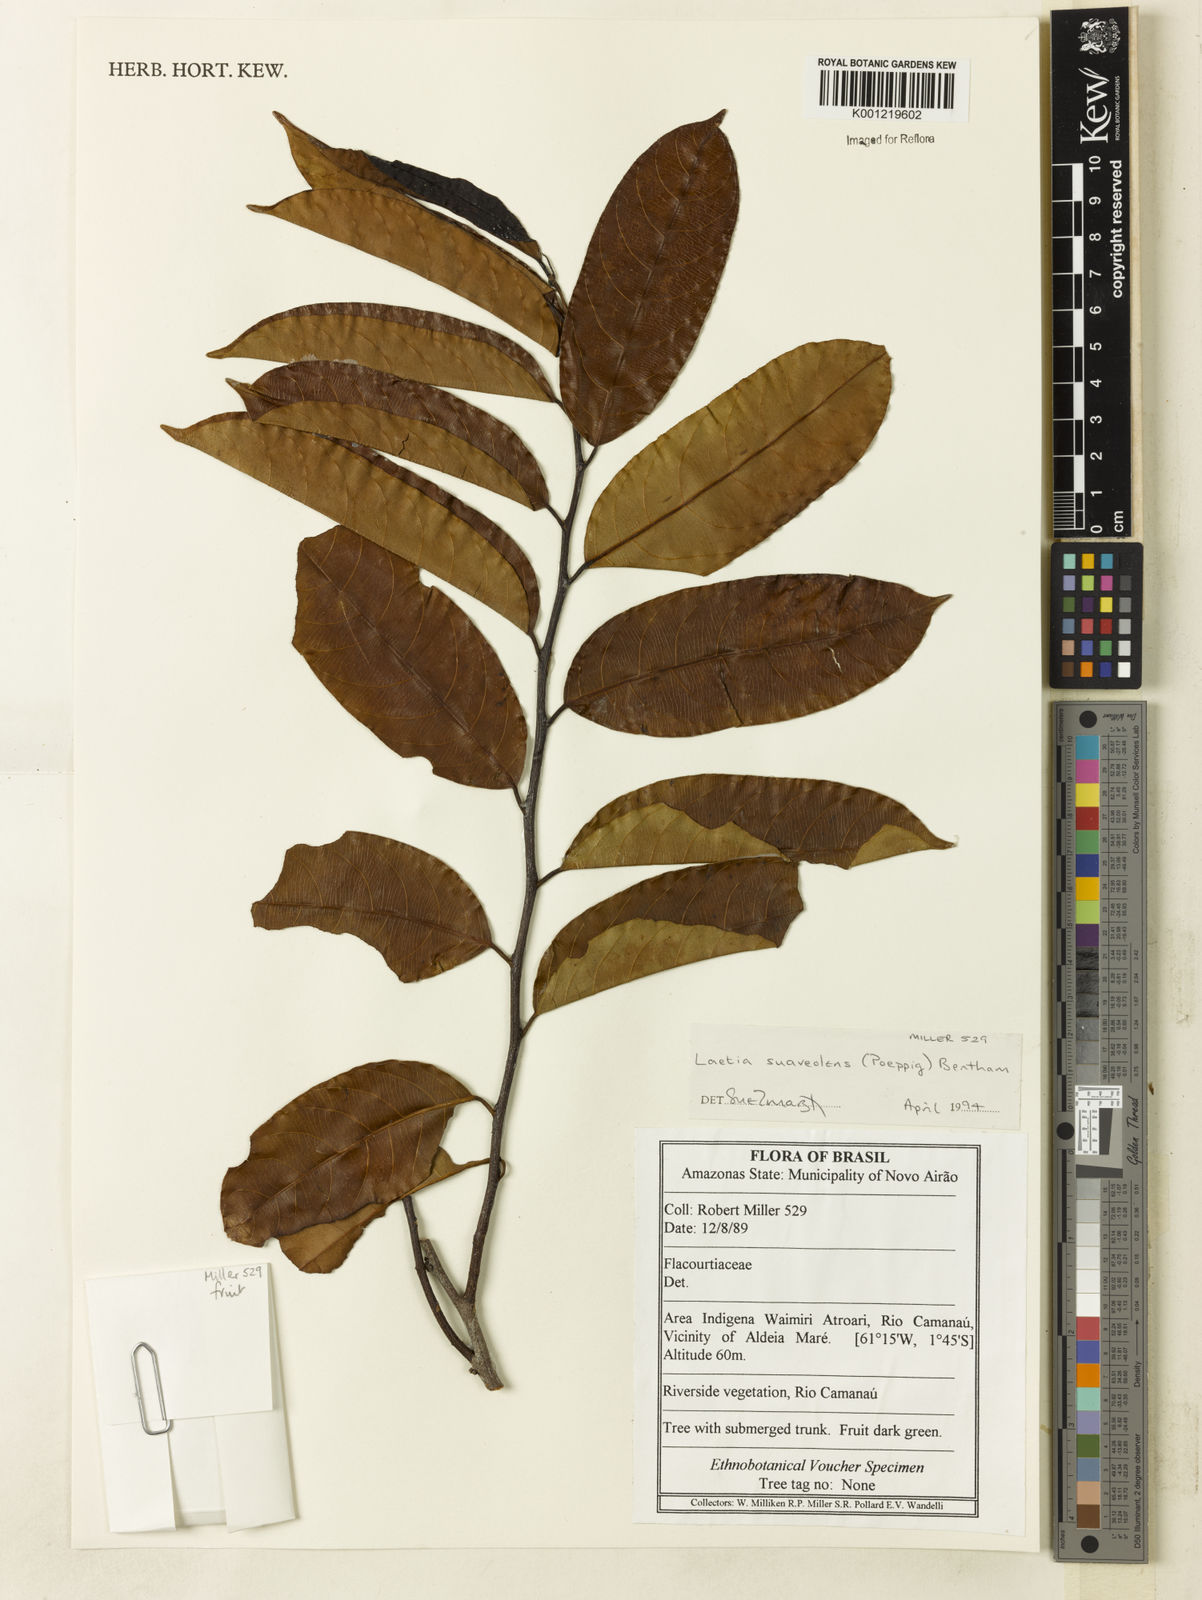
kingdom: Plantae
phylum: Tracheophyta
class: Magnoliopsida
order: Malpighiales
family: Salicaceae
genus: Casearia
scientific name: Casearia suaveolens
